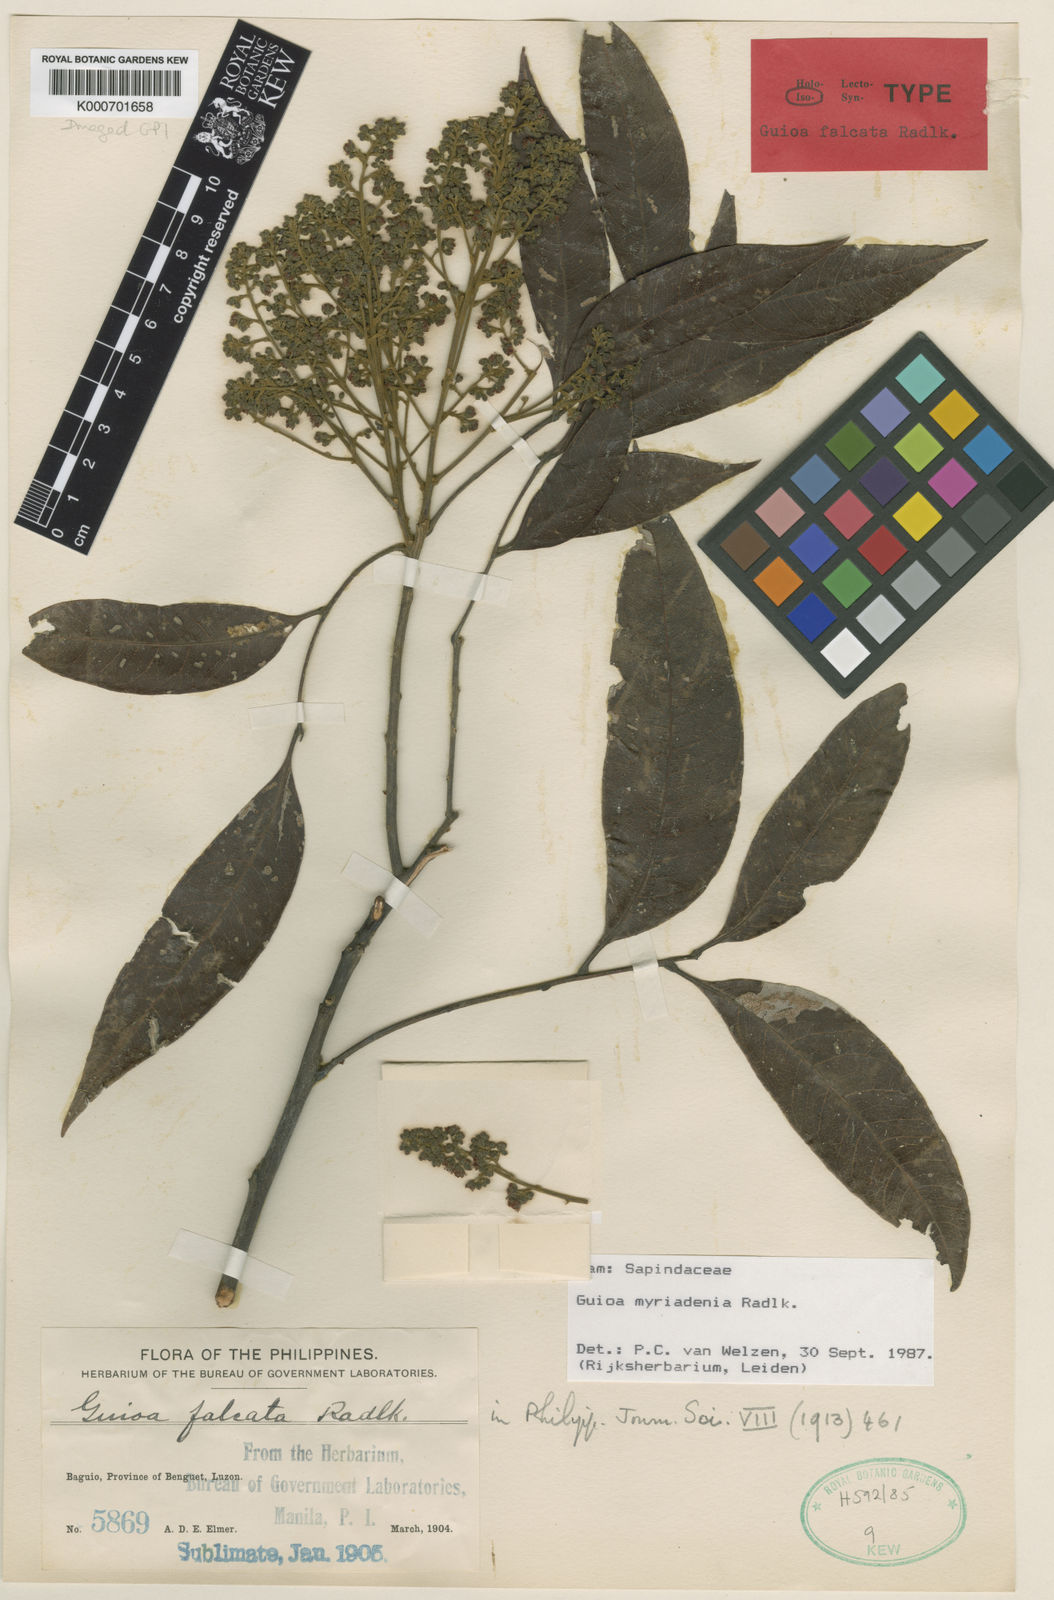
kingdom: Plantae
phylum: Tracheophyta
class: Magnoliopsida
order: Sapindales
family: Sapindaceae
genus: Guioa
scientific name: Guioa myriadenia
